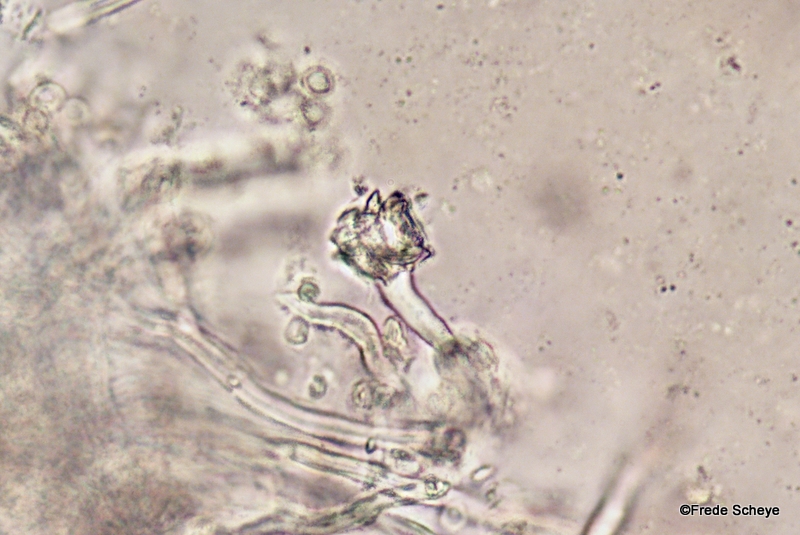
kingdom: Fungi
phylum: Basidiomycota
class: Agaricomycetes
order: Hymenochaetales
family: Oxyporaceae
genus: Oxyporus
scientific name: Oxyporus populinus
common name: sammenvokset trylleporesvamp
